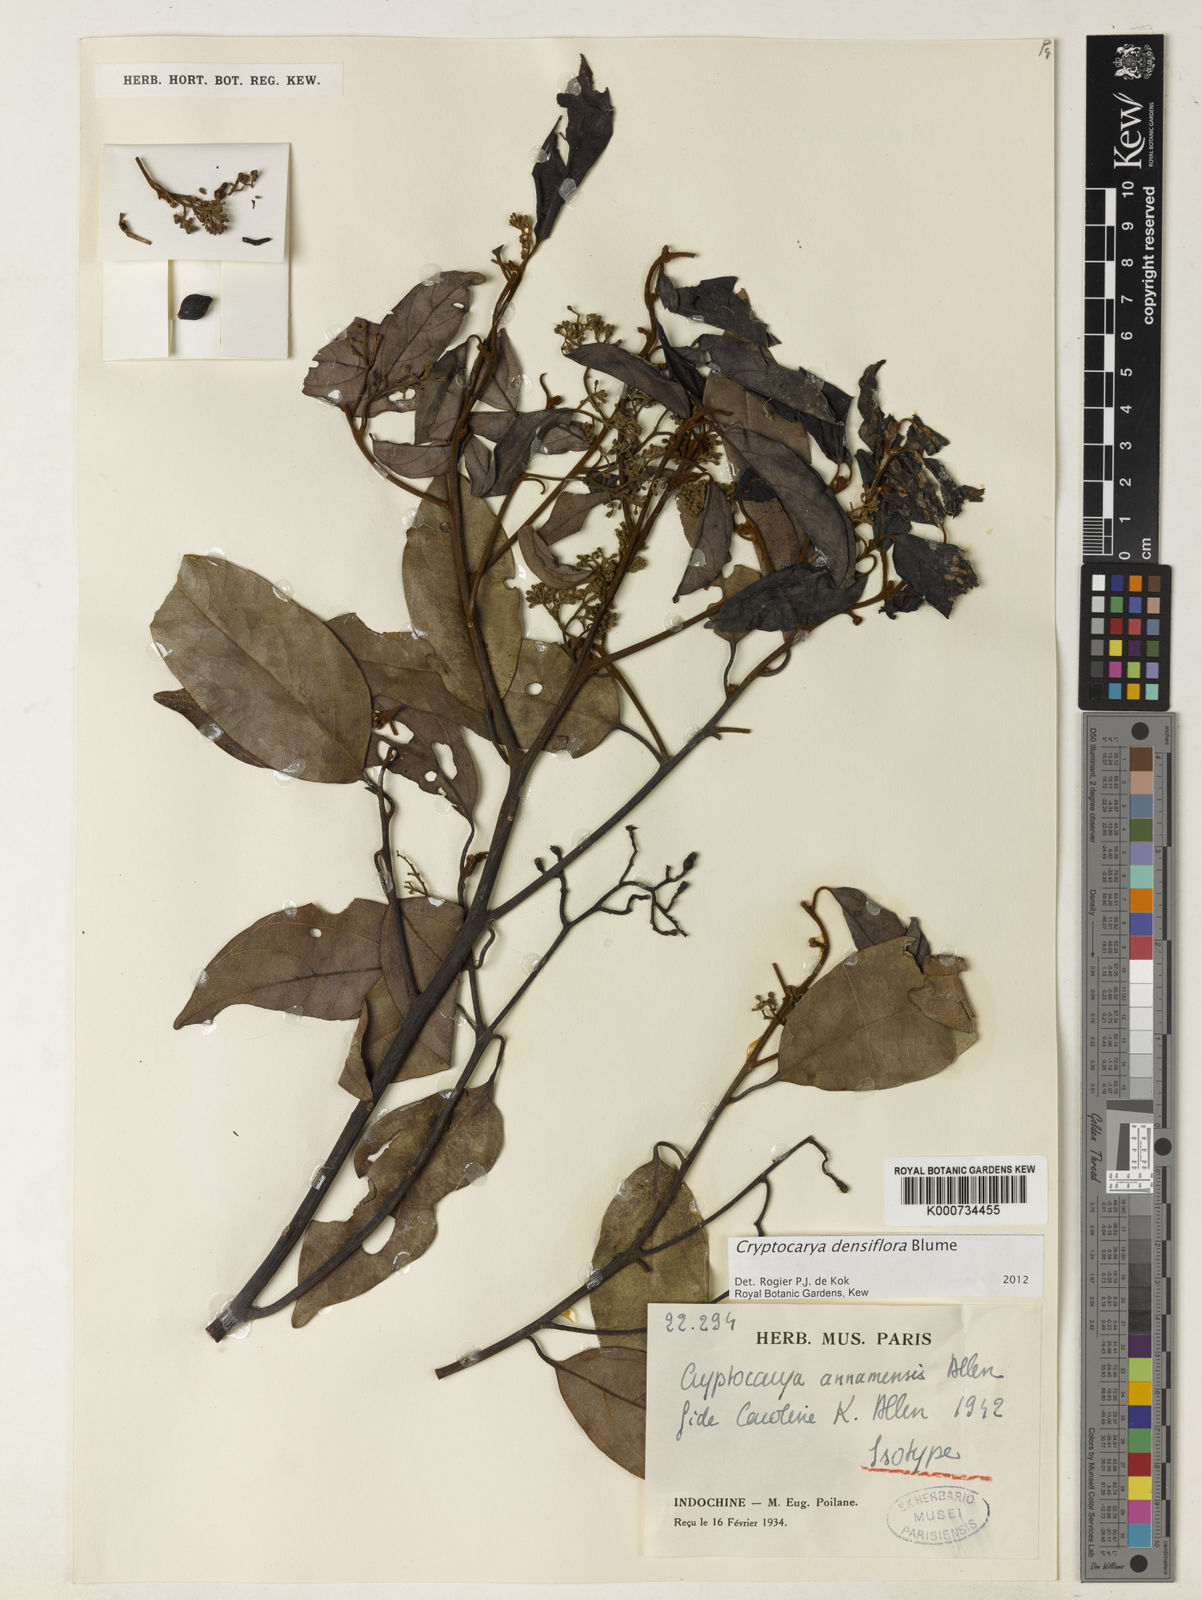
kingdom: Plantae
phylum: Tracheophyta
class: Magnoliopsida
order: Laurales
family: Lauraceae
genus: Cryptocarya
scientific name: Cryptocarya densiflora
